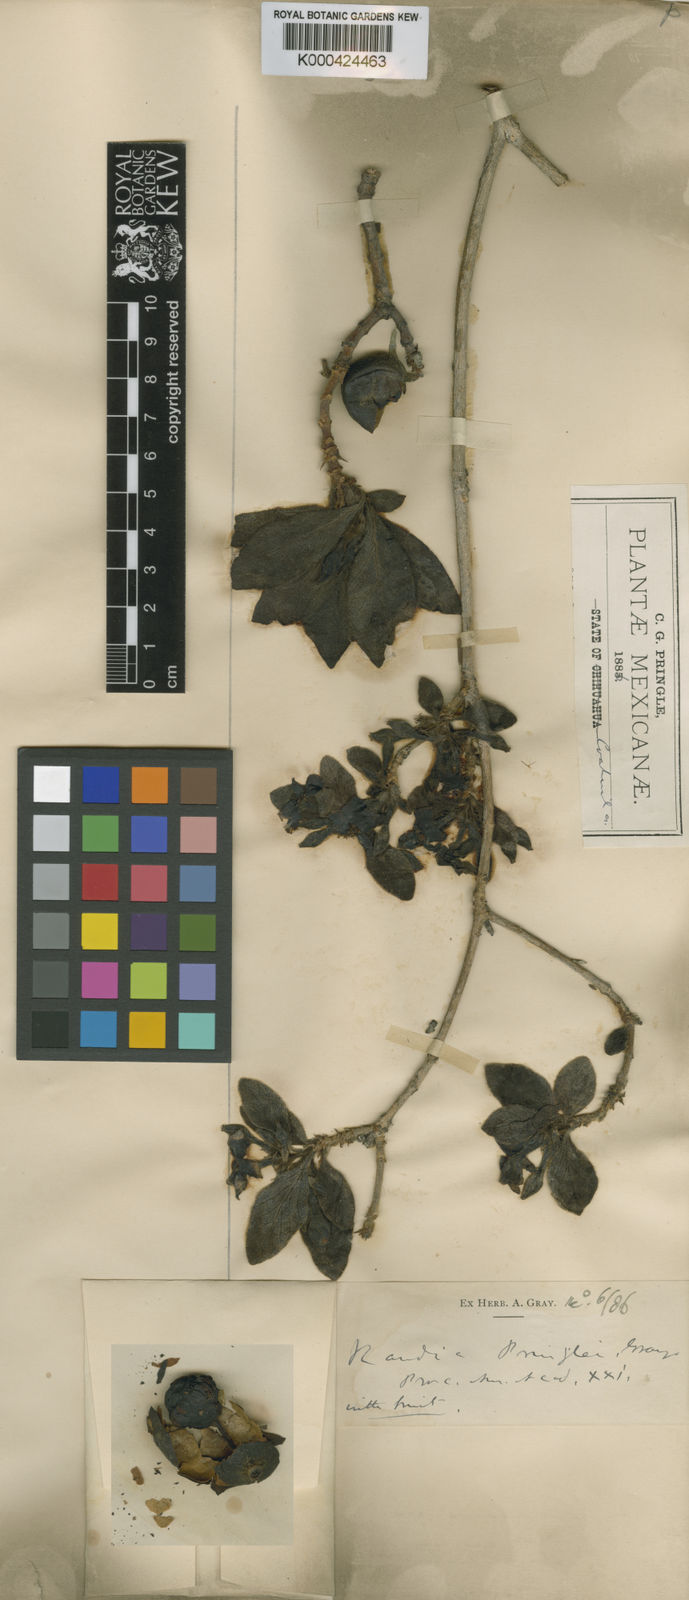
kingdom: Plantae
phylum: Tracheophyta
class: Magnoliopsida
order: Gentianales
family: Rubiaceae
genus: Randia
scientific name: Randia pringlei
